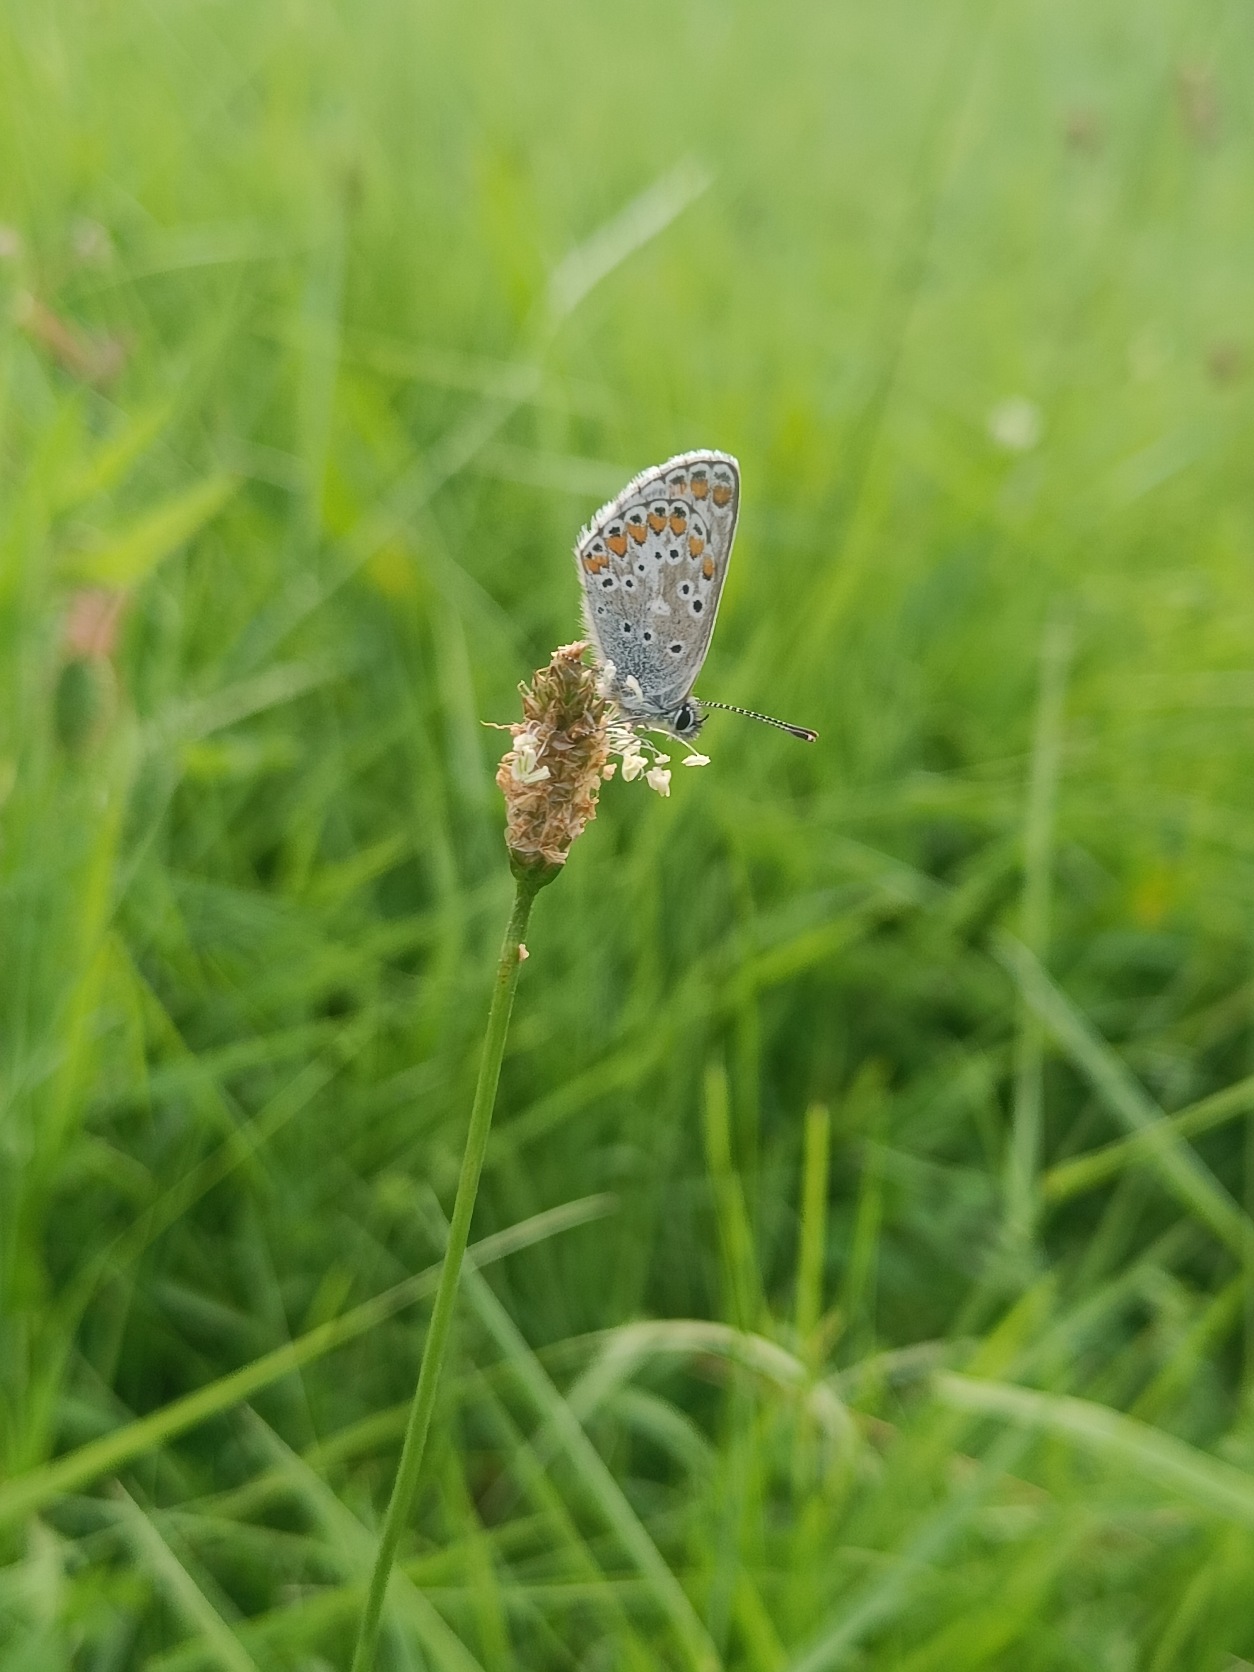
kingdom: Animalia
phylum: Arthropoda
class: Insecta
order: Lepidoptera
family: Lycaenidae
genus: Aricia
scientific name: Aricia agestis
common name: Rødplettet blåfugl
